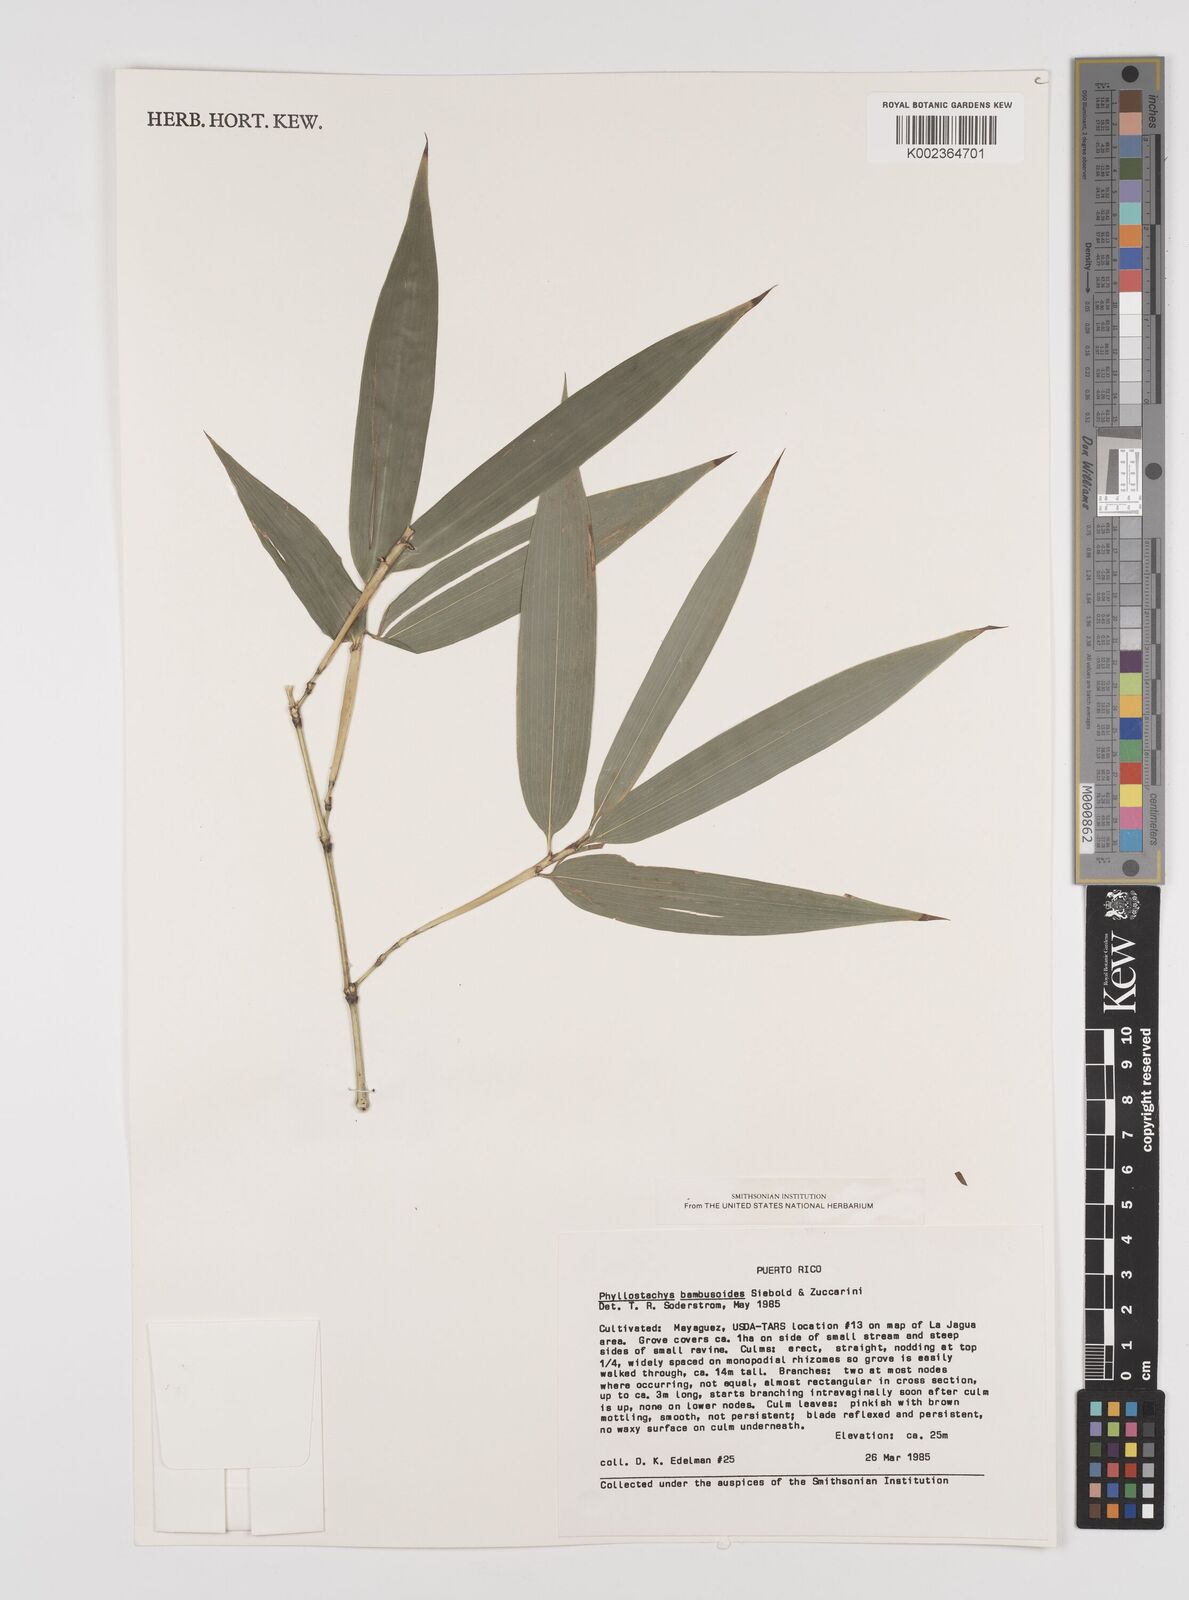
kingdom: Plantae
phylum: Tracheophyta
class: Liliopsida
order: Poales
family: Poaceae
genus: Phyllostachys
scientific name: Phyllostachys reticulata
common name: Bamboo
